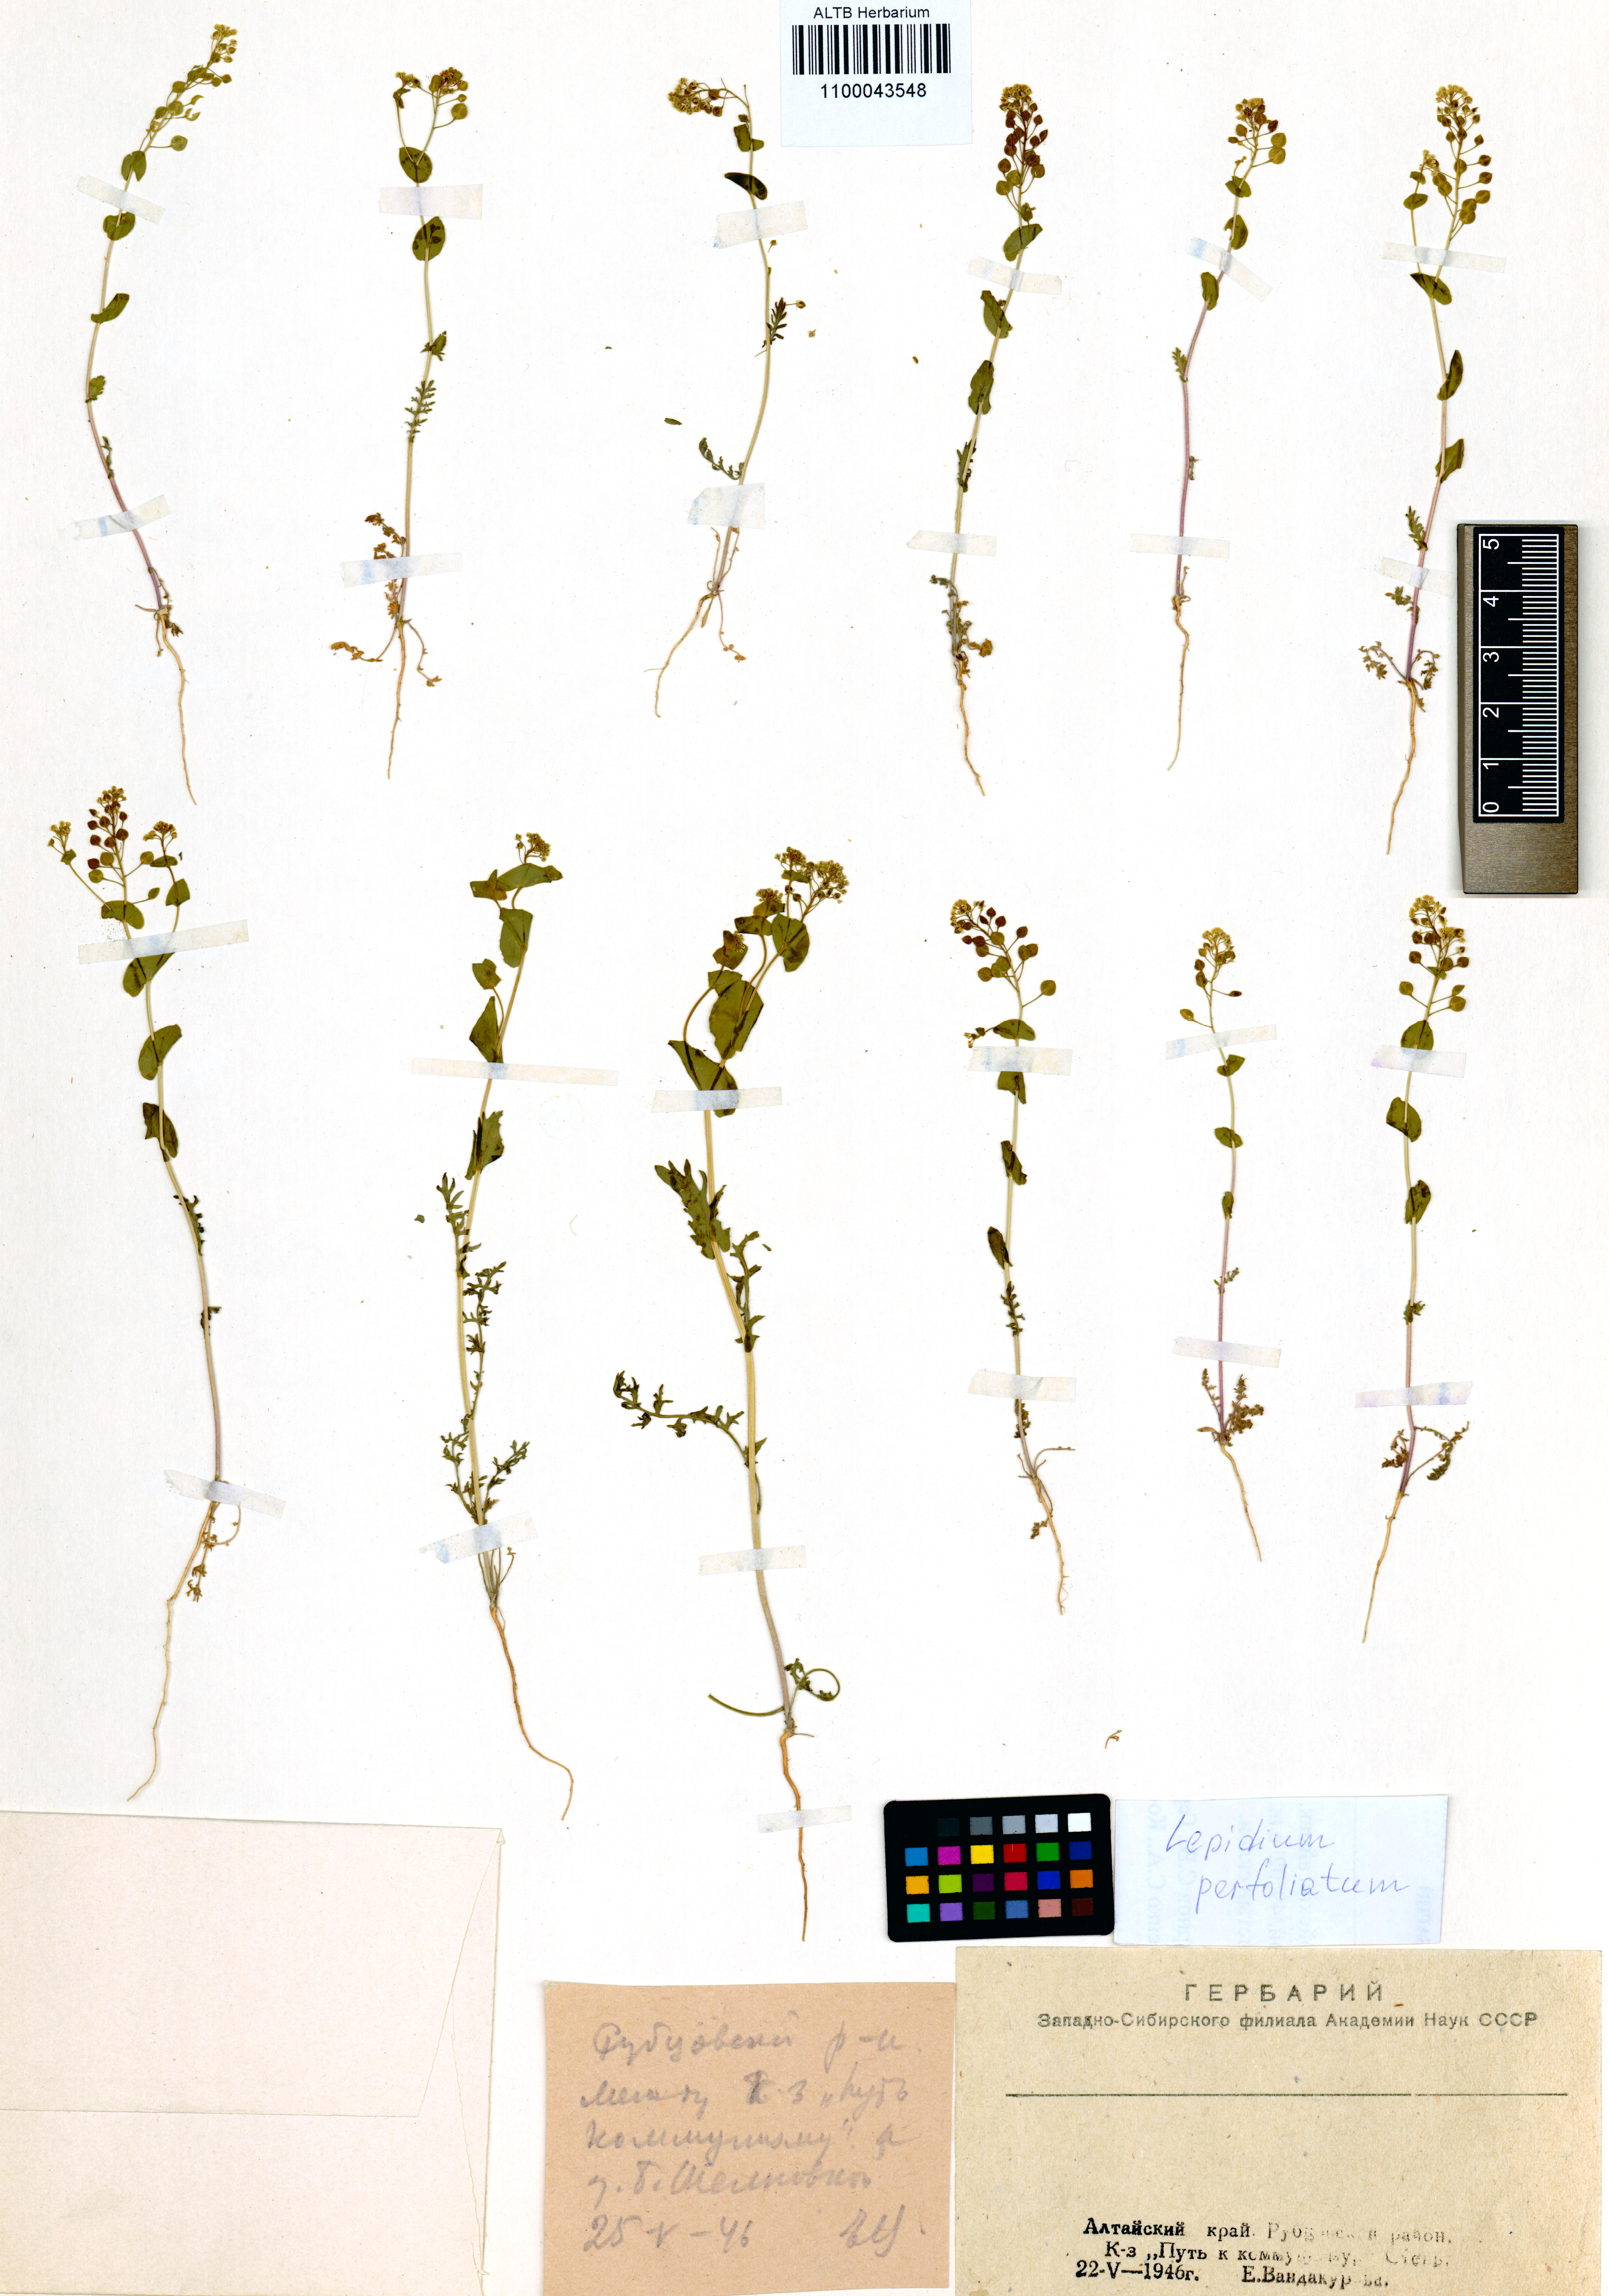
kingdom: Plantae
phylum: Tracheophyta
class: Magnoliopsida
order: Brassicales
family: Brassicaceae
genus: Lepidium
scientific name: Lepidium perfoliatum
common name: Perfoliate pepperwort
